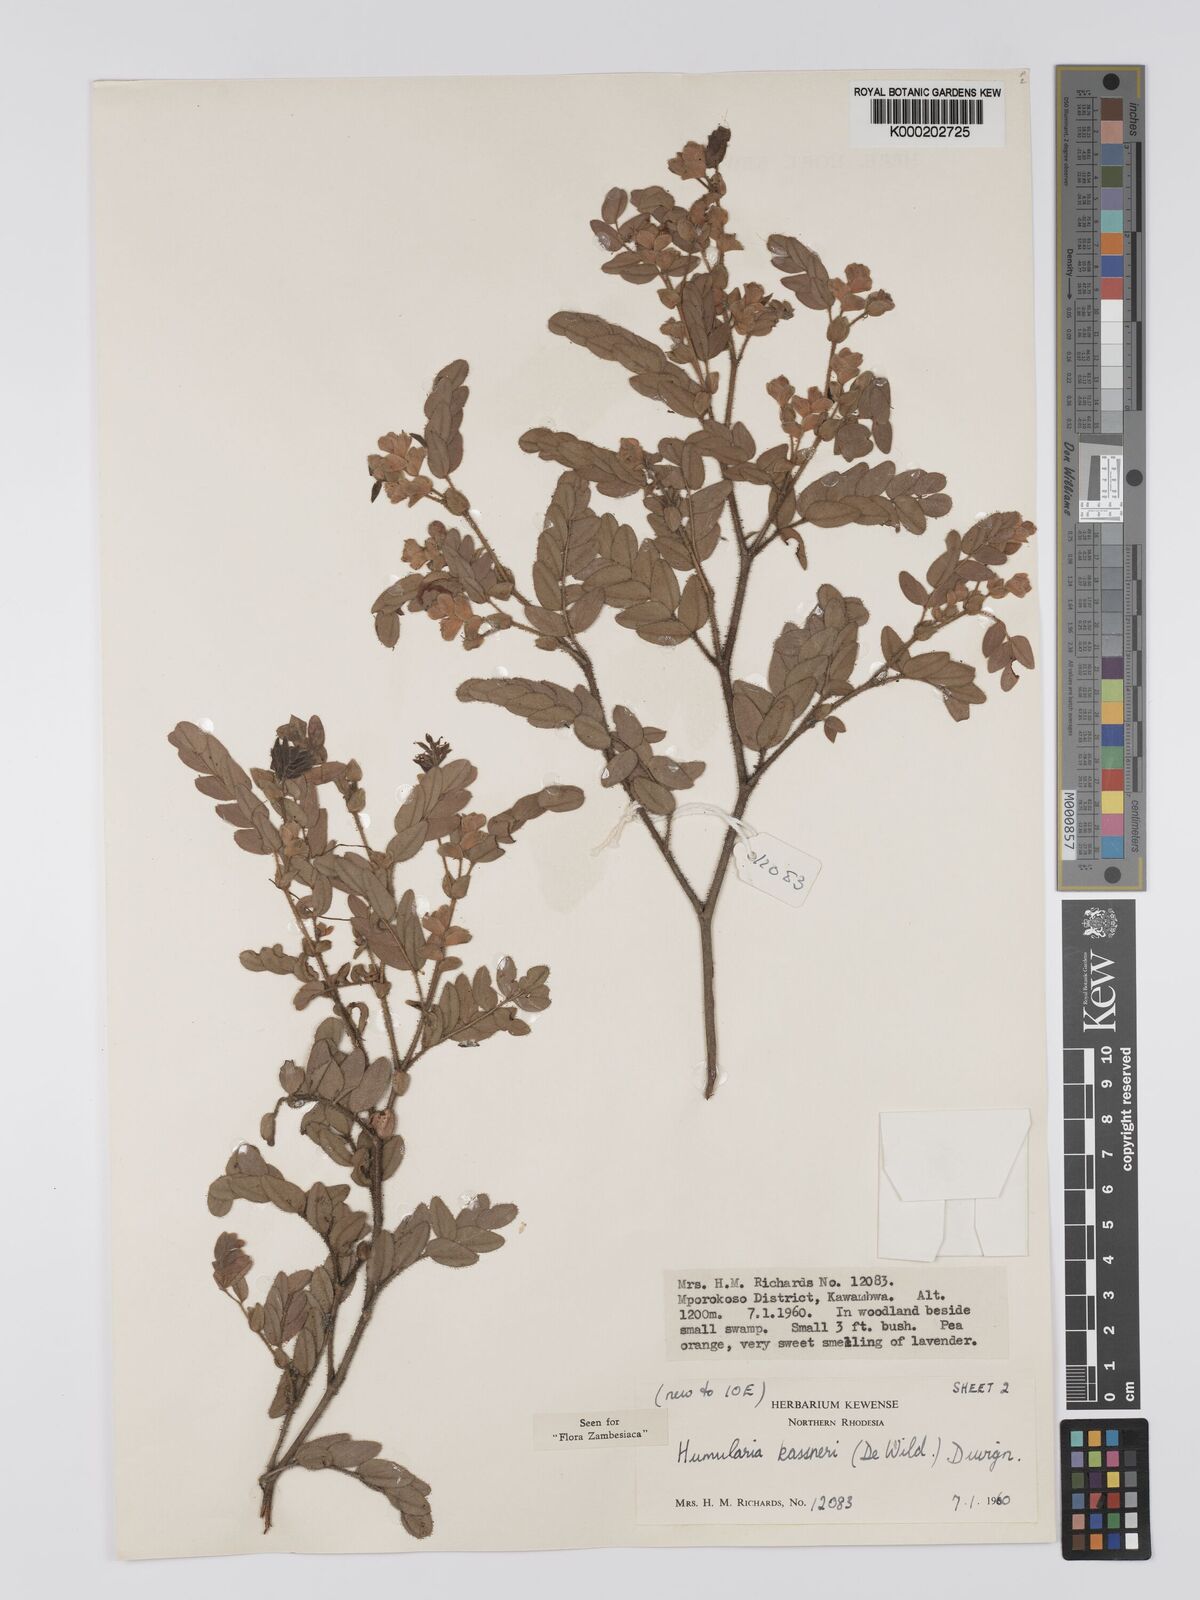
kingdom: Plantae
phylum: Tracheophyta
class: Magnoliopsida
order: Fabales
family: Fabaceae
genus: Humularia
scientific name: Humularia kassneri
